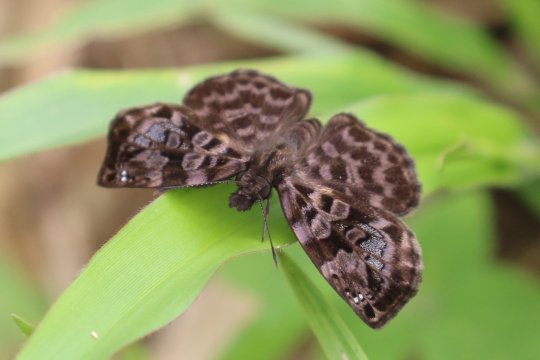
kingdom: Animalia
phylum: Arthropoda
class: Insecta
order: Lepidoptera
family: Hesperiidae
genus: Gorgythion
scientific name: Gorgythion beggina
